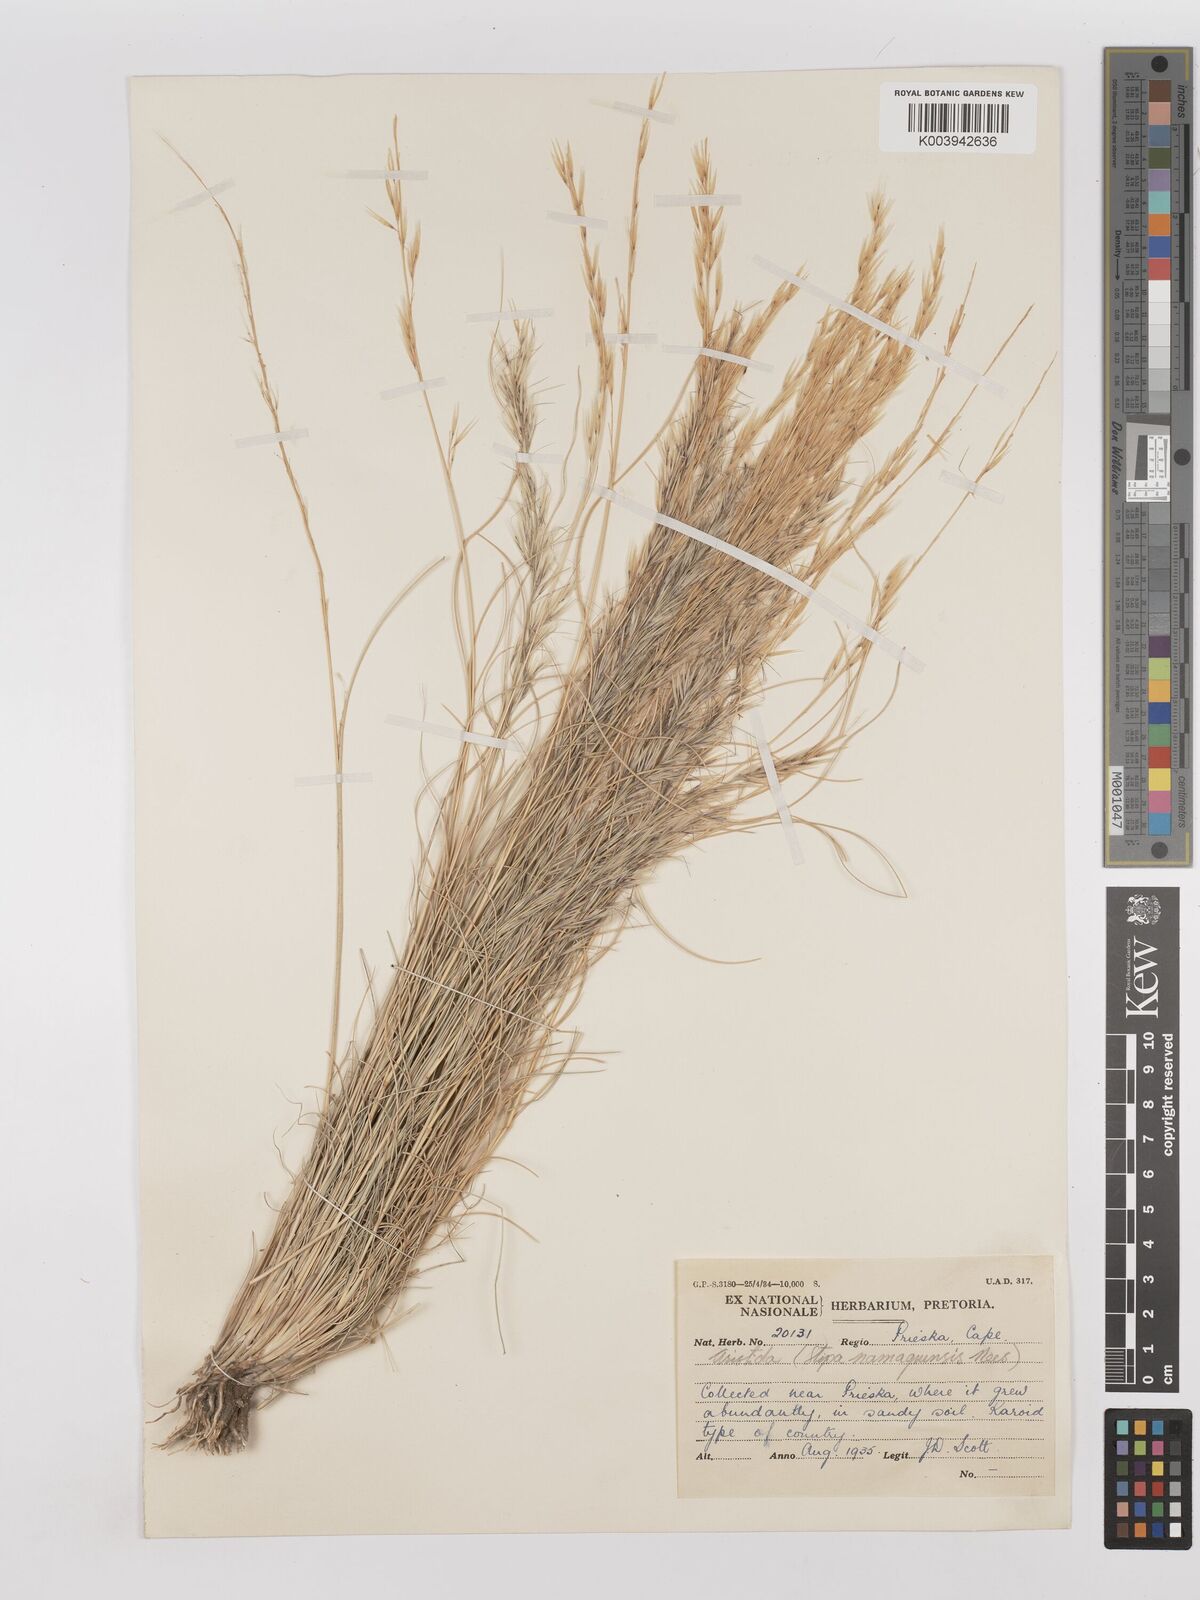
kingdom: Plantae
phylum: Tracheophyta
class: Liliopsida
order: Poales
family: Poaceae
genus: Stipagrostis
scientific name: Stipagrostis anomala
